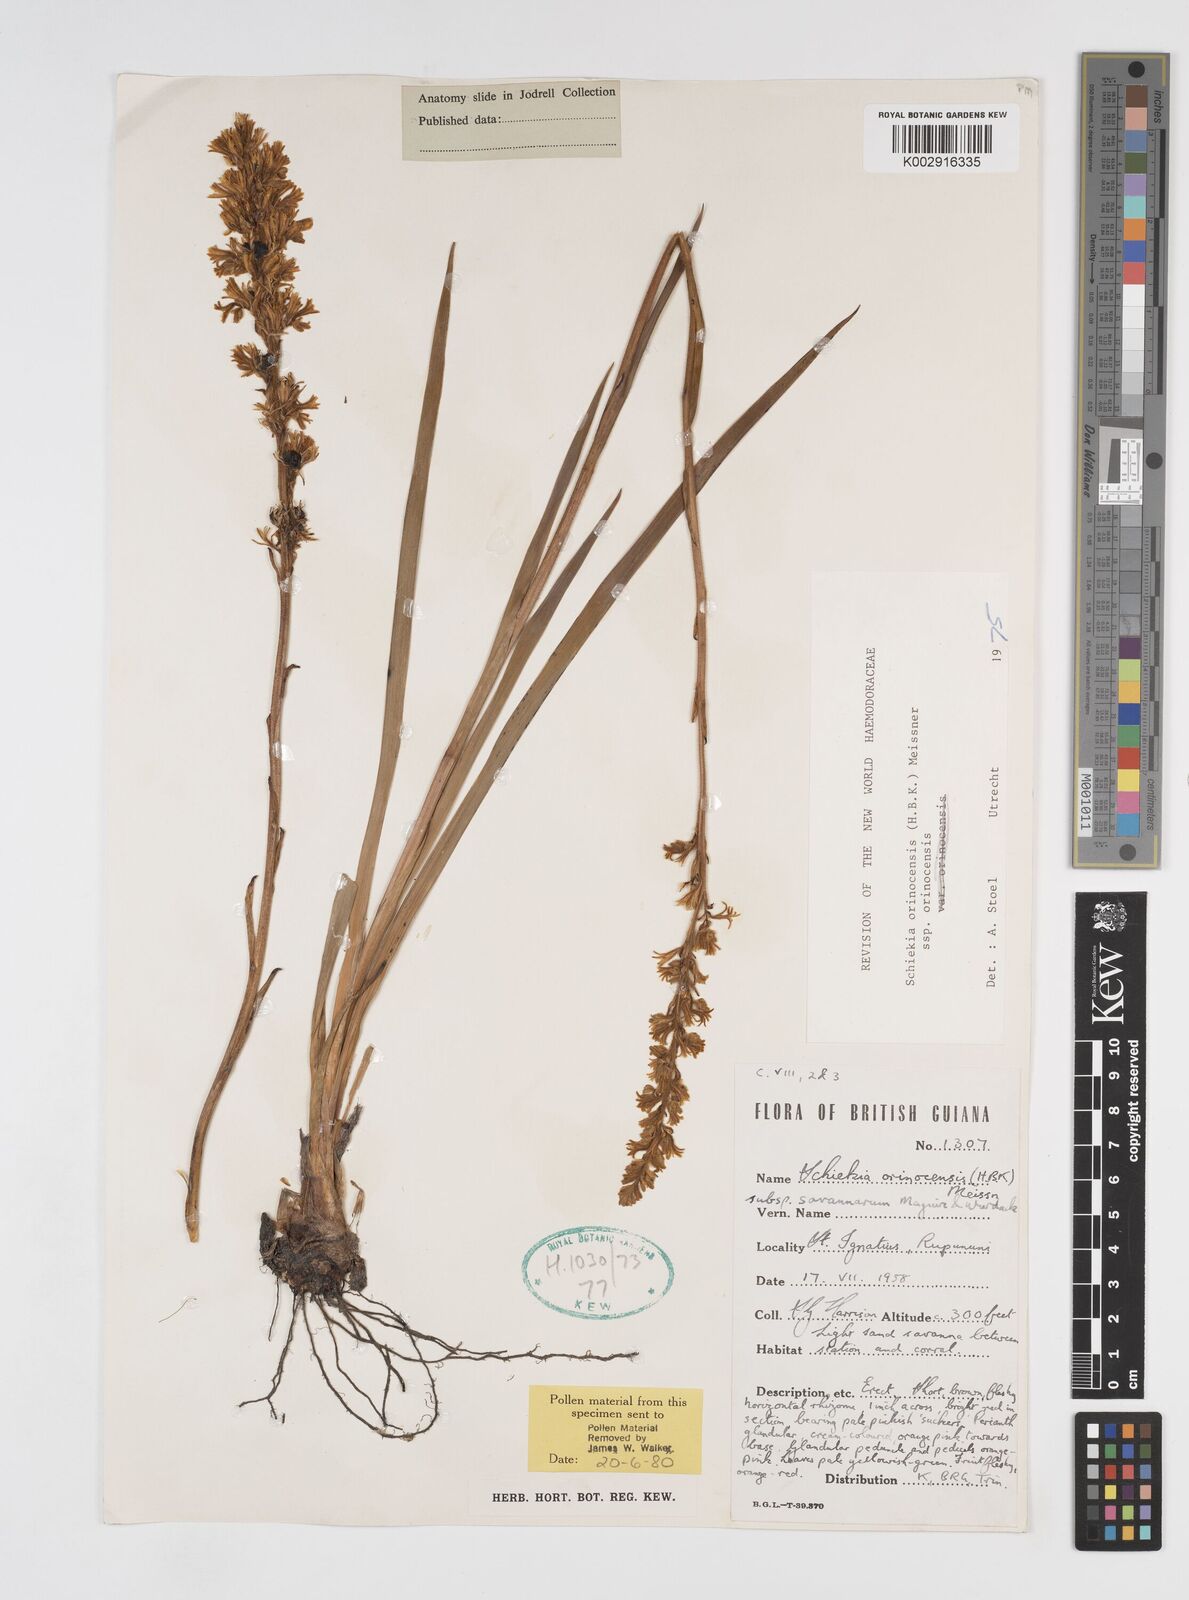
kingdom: Plantae
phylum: Tracheophyta
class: Liliopsida
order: Commelinales
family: Haemodoraceae
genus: Schiekia
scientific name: Schiekia orinocensis
